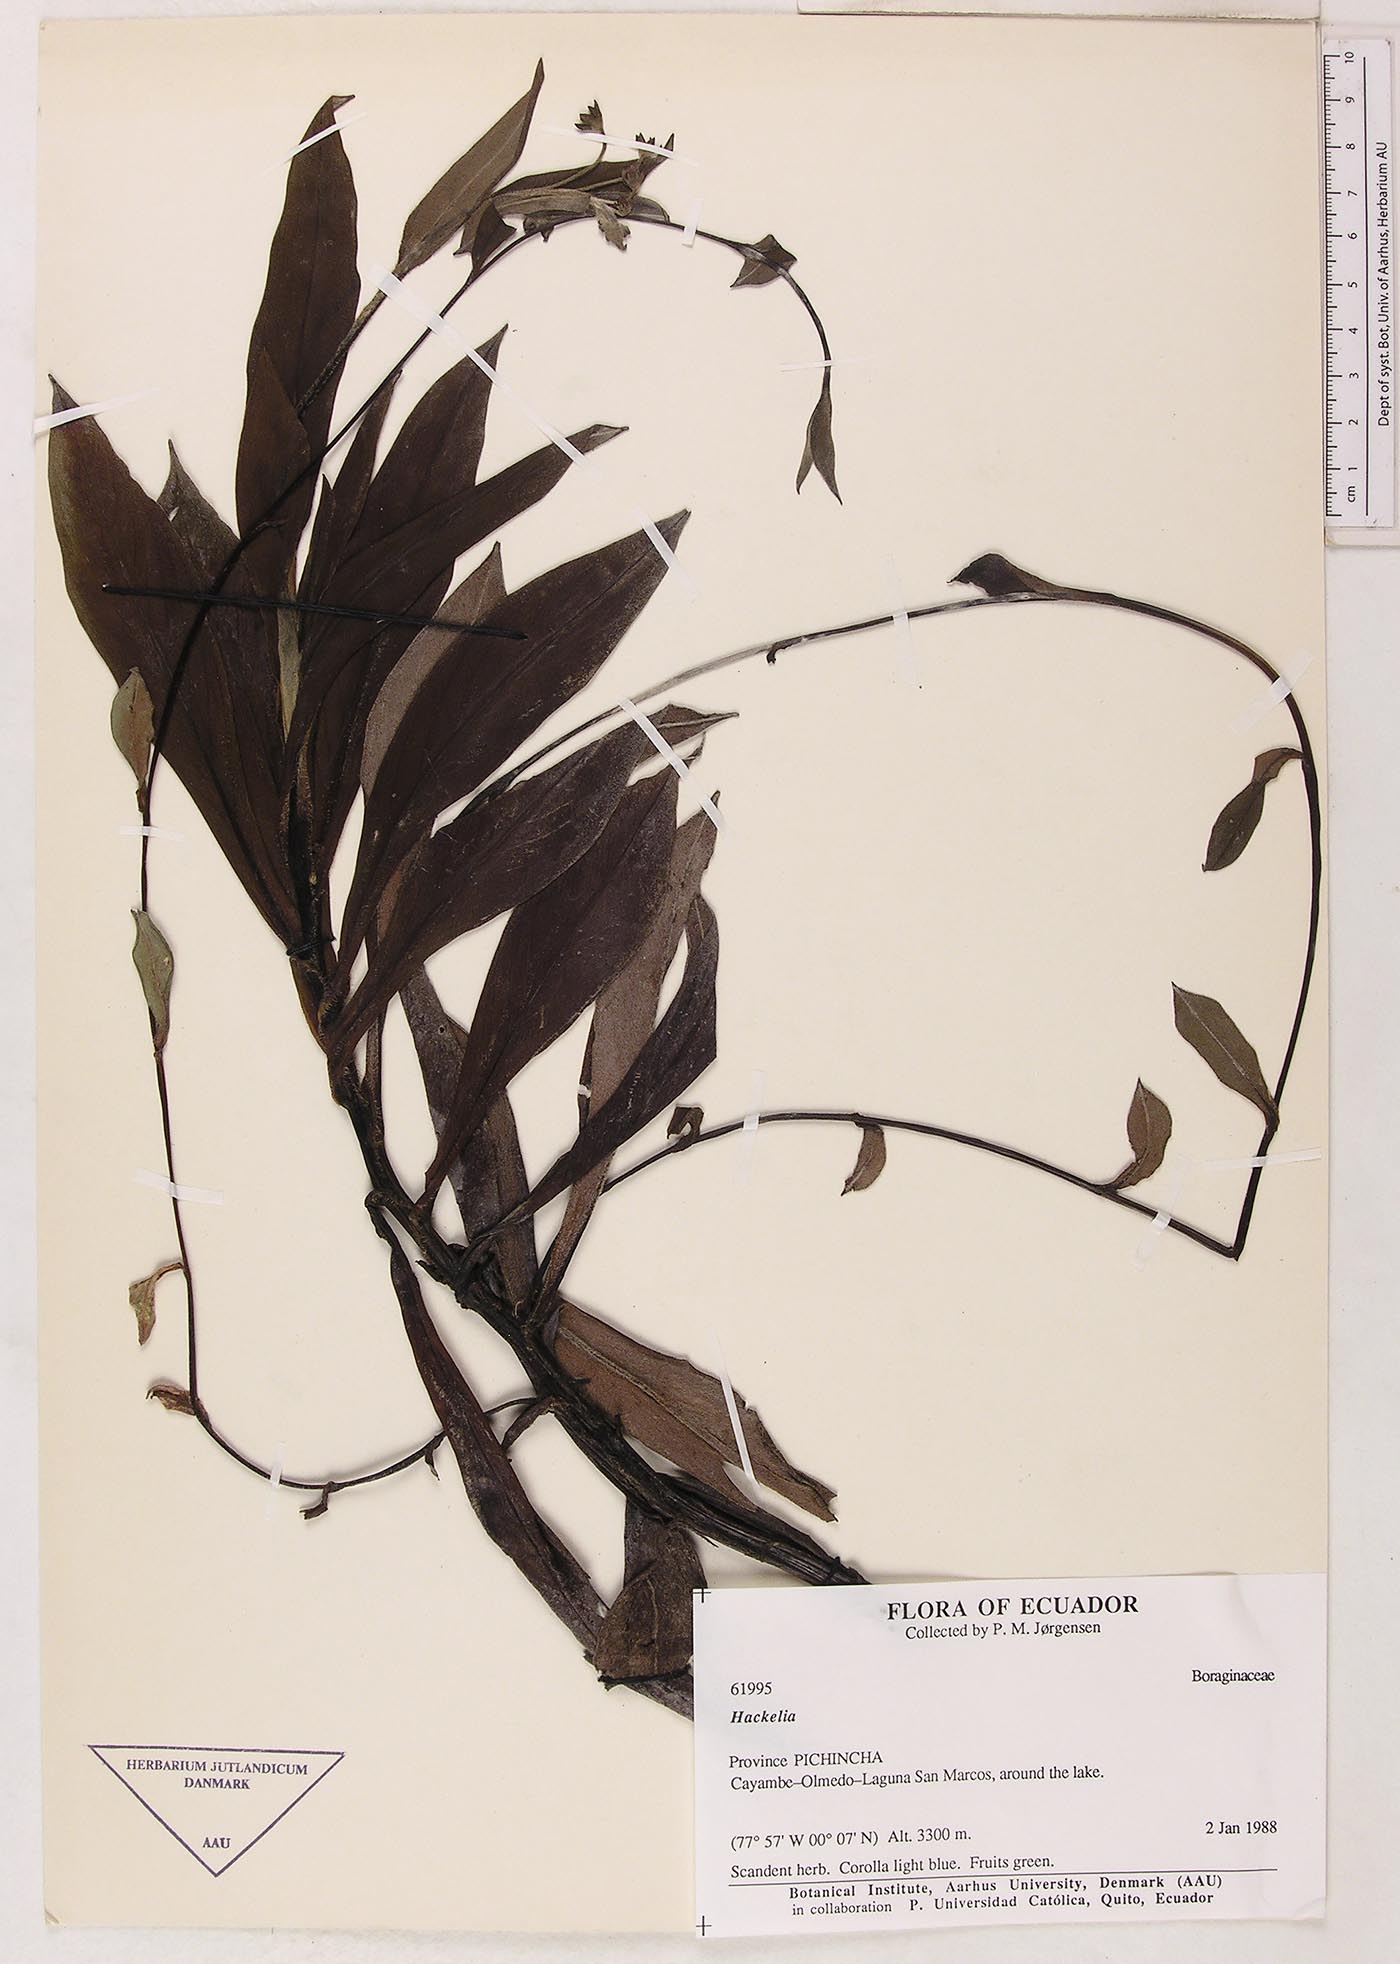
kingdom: Plantae
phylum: Tracheophyta
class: Magnoliopsida
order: Boraginales
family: Boraginaceae
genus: Selkirkia
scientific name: Selkirkia trianaeum
